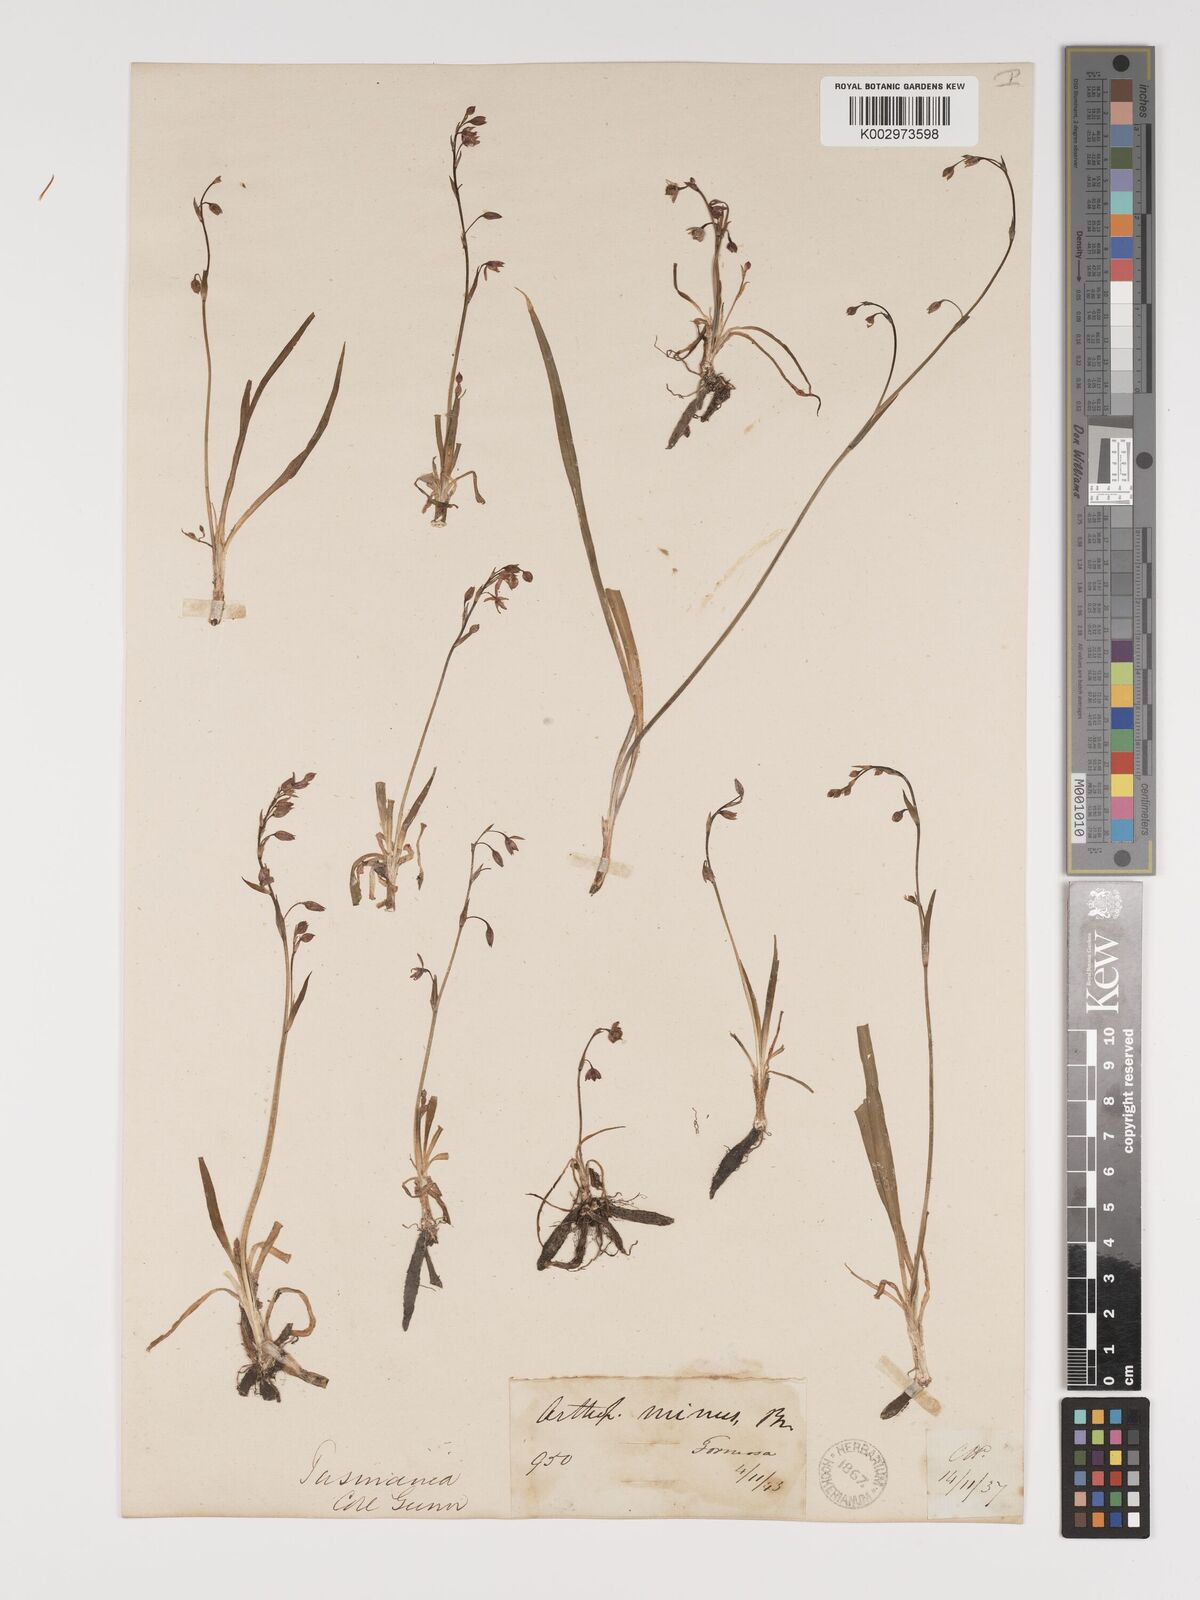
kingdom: Plantae
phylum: Tracheophyta
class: Liliopsida
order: Asparagales
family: Asparagaceae
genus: Arthropodium
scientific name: Arthropodium minus
